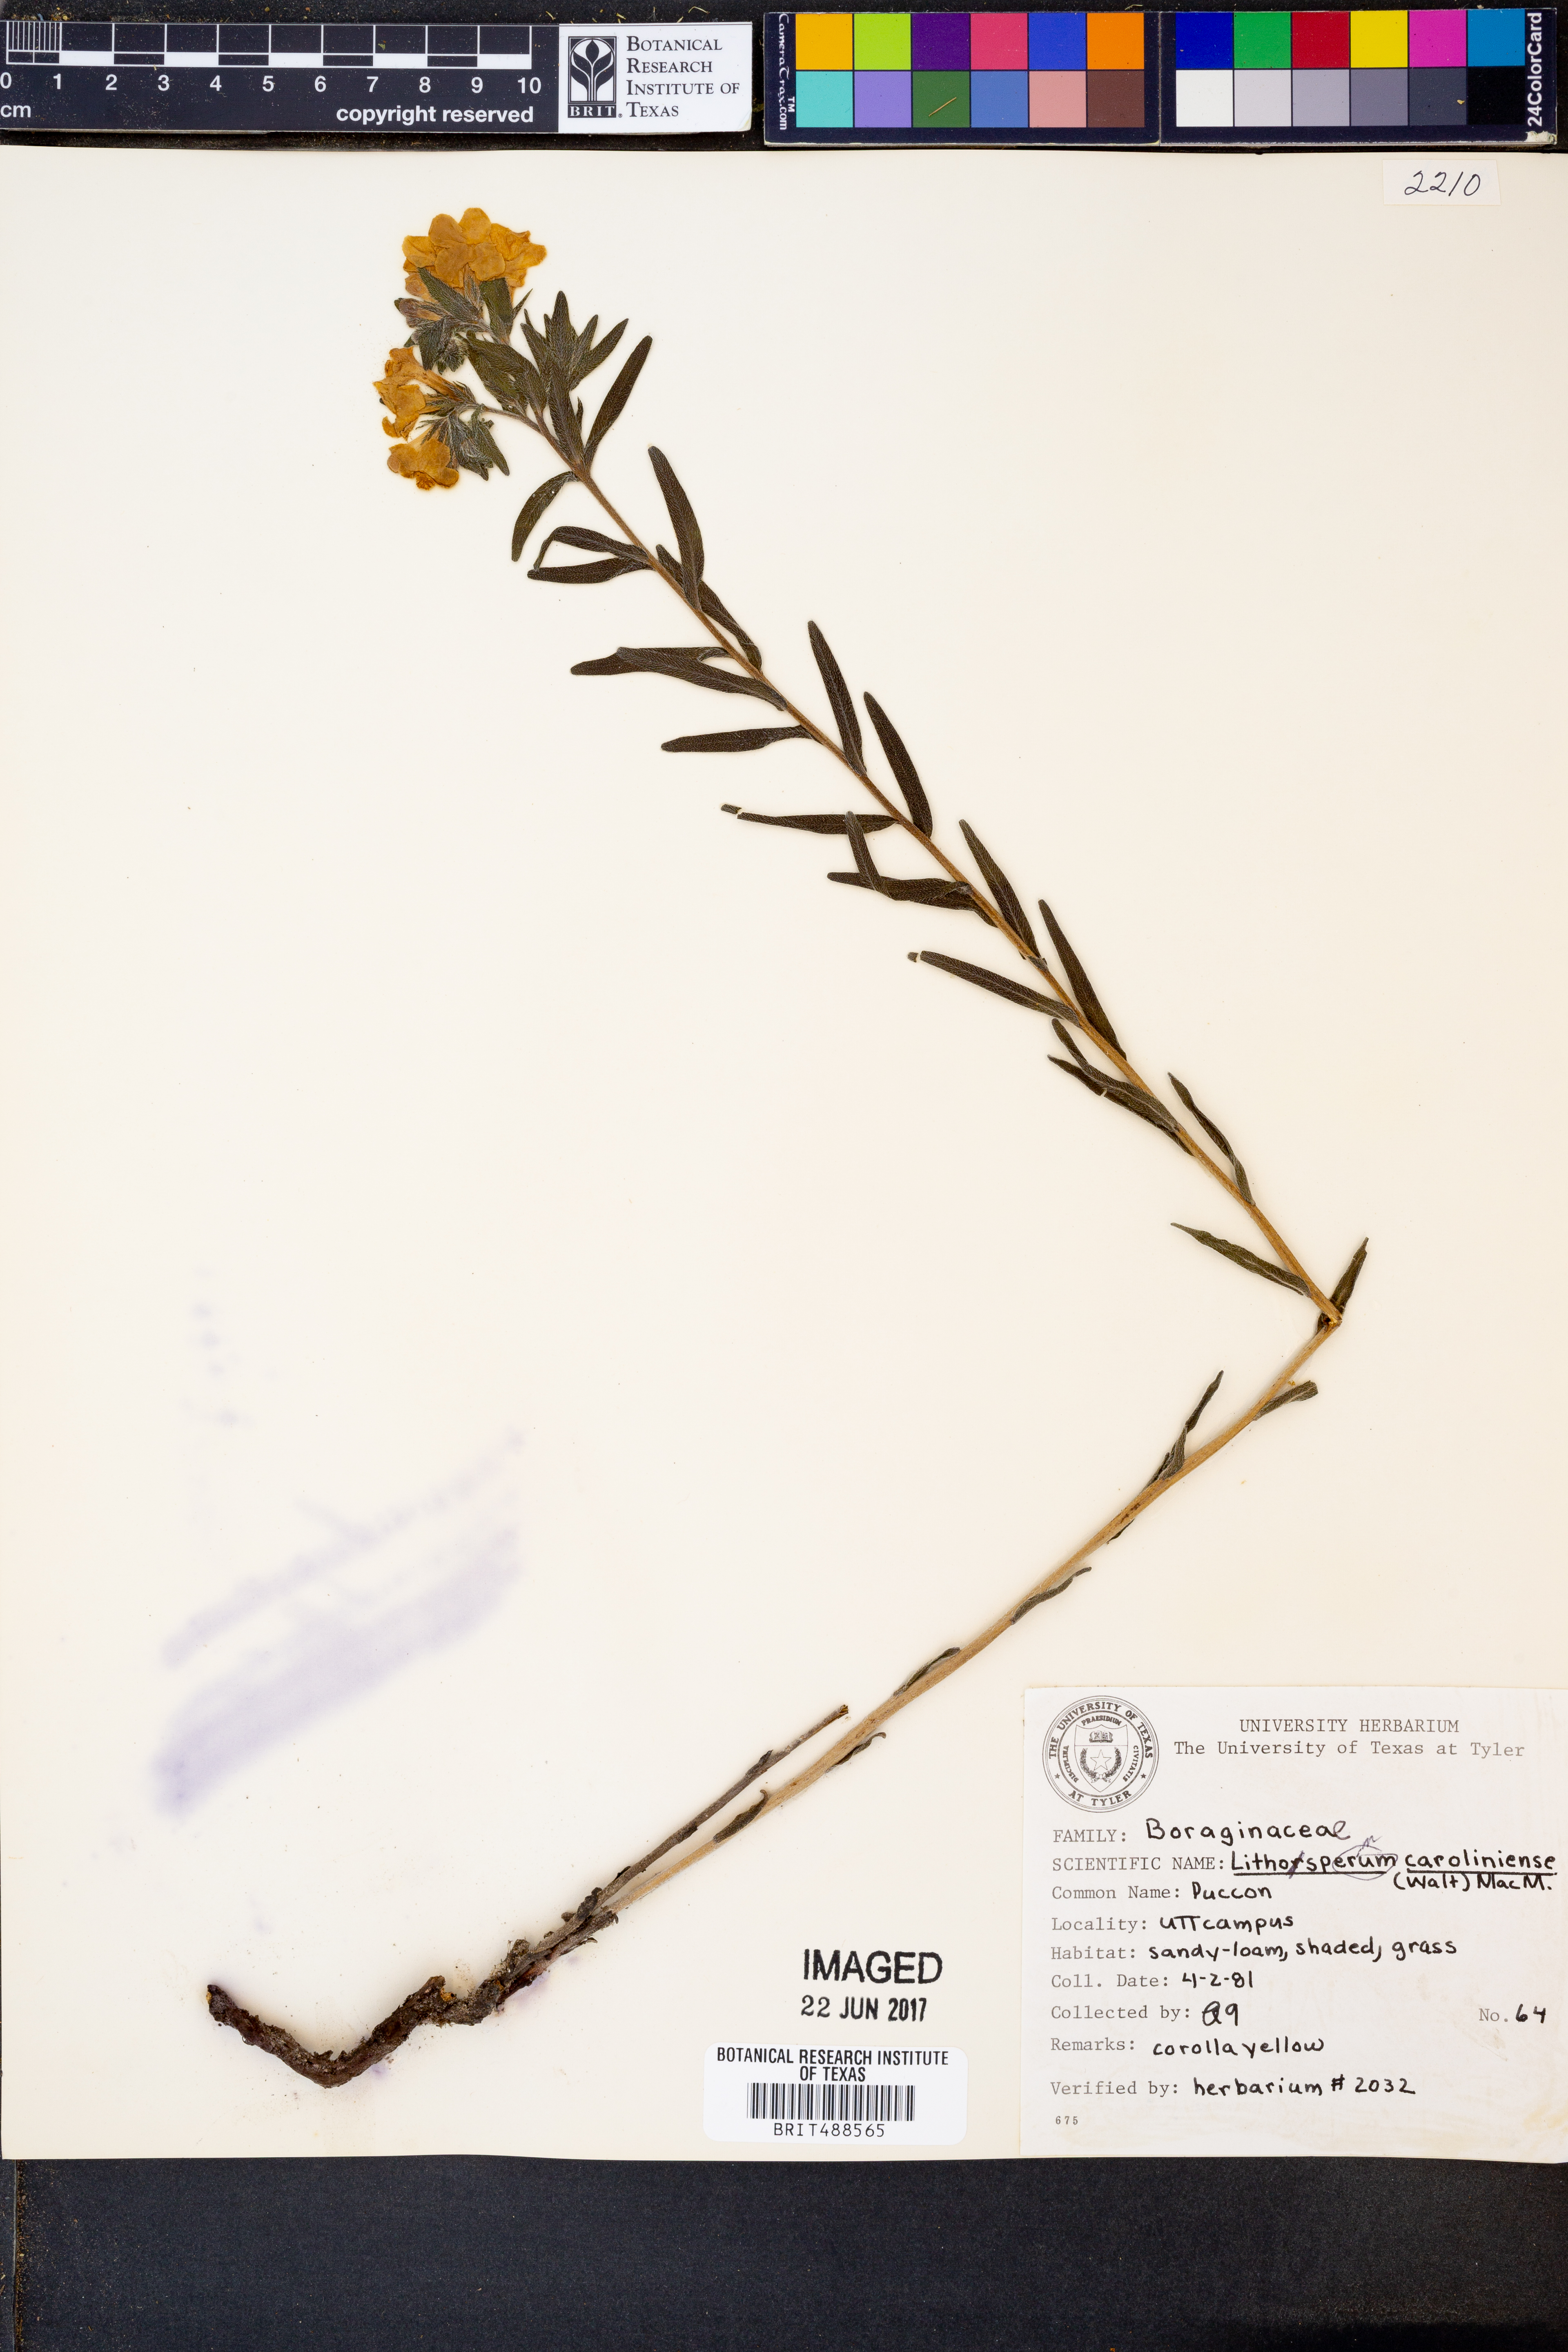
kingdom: Plantae
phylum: Tracheophyta
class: Magnoliopsida
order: Boraginales
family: Boraginaceae
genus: Lithospermum
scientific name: Lithospermum caroliniense
